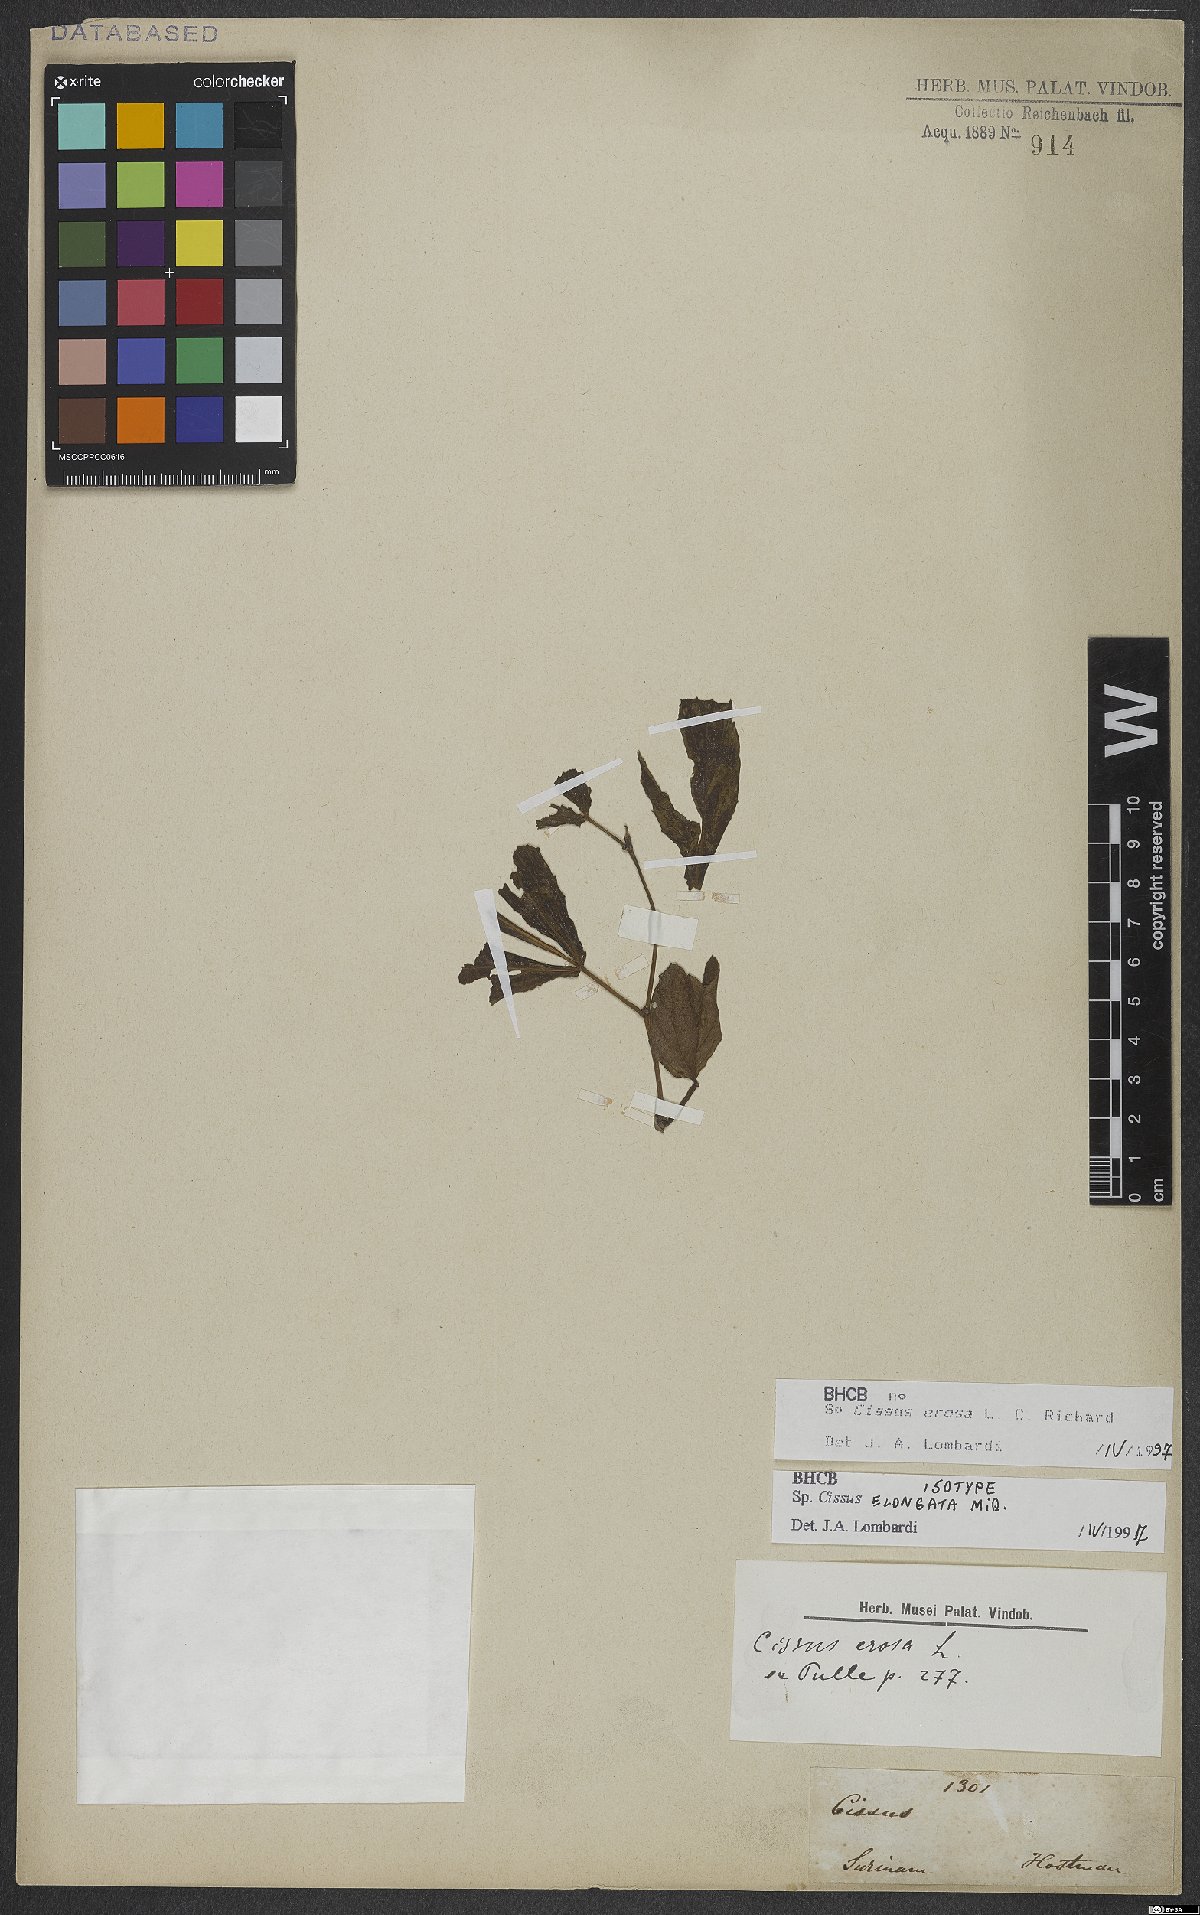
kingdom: Plantae
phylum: Tracheophyta
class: Magnoliopsida
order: Vitales
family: Vitaceae
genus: Cissus
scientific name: Cissus erosa
